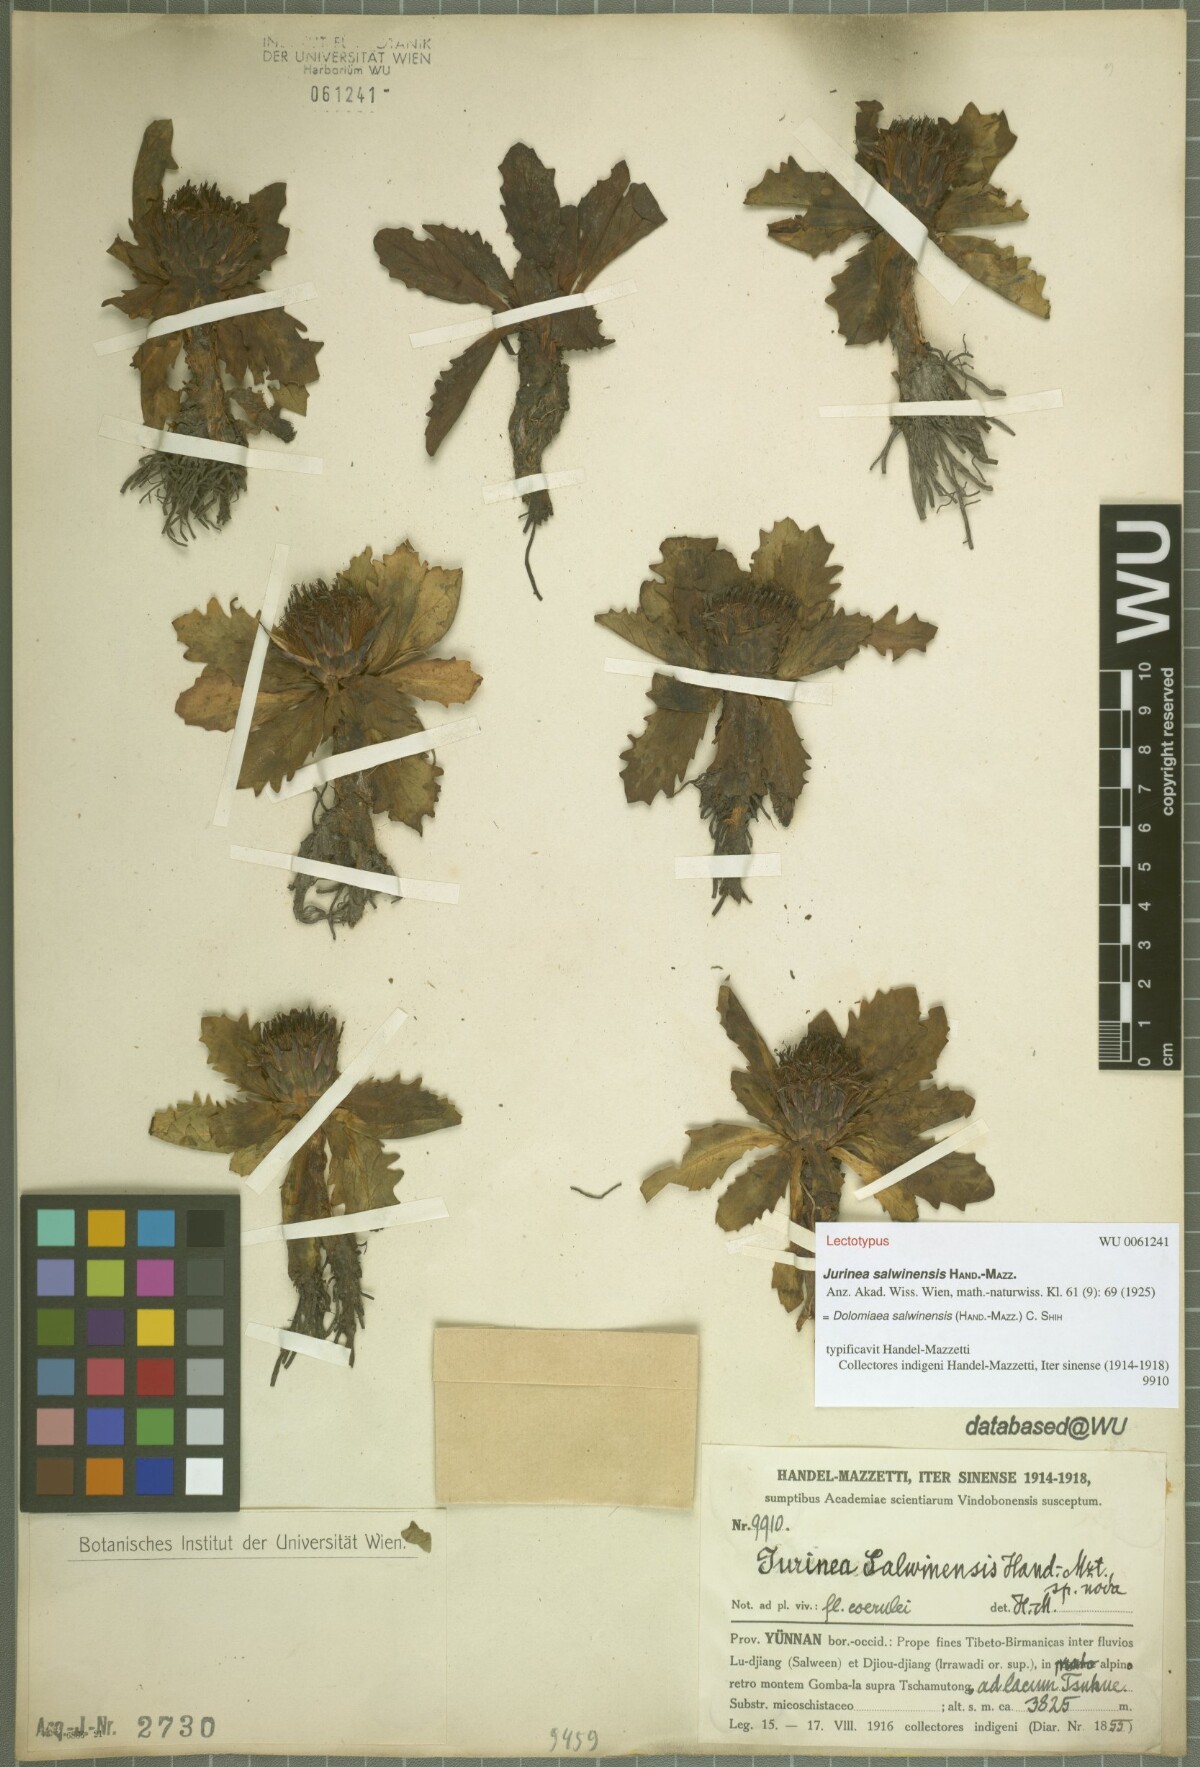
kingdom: Plantae
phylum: Tracheophyta
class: Magnoliopsida
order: Asterales
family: Asteraceae
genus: Dolomiaea
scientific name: Dolomiaea salwinensis
